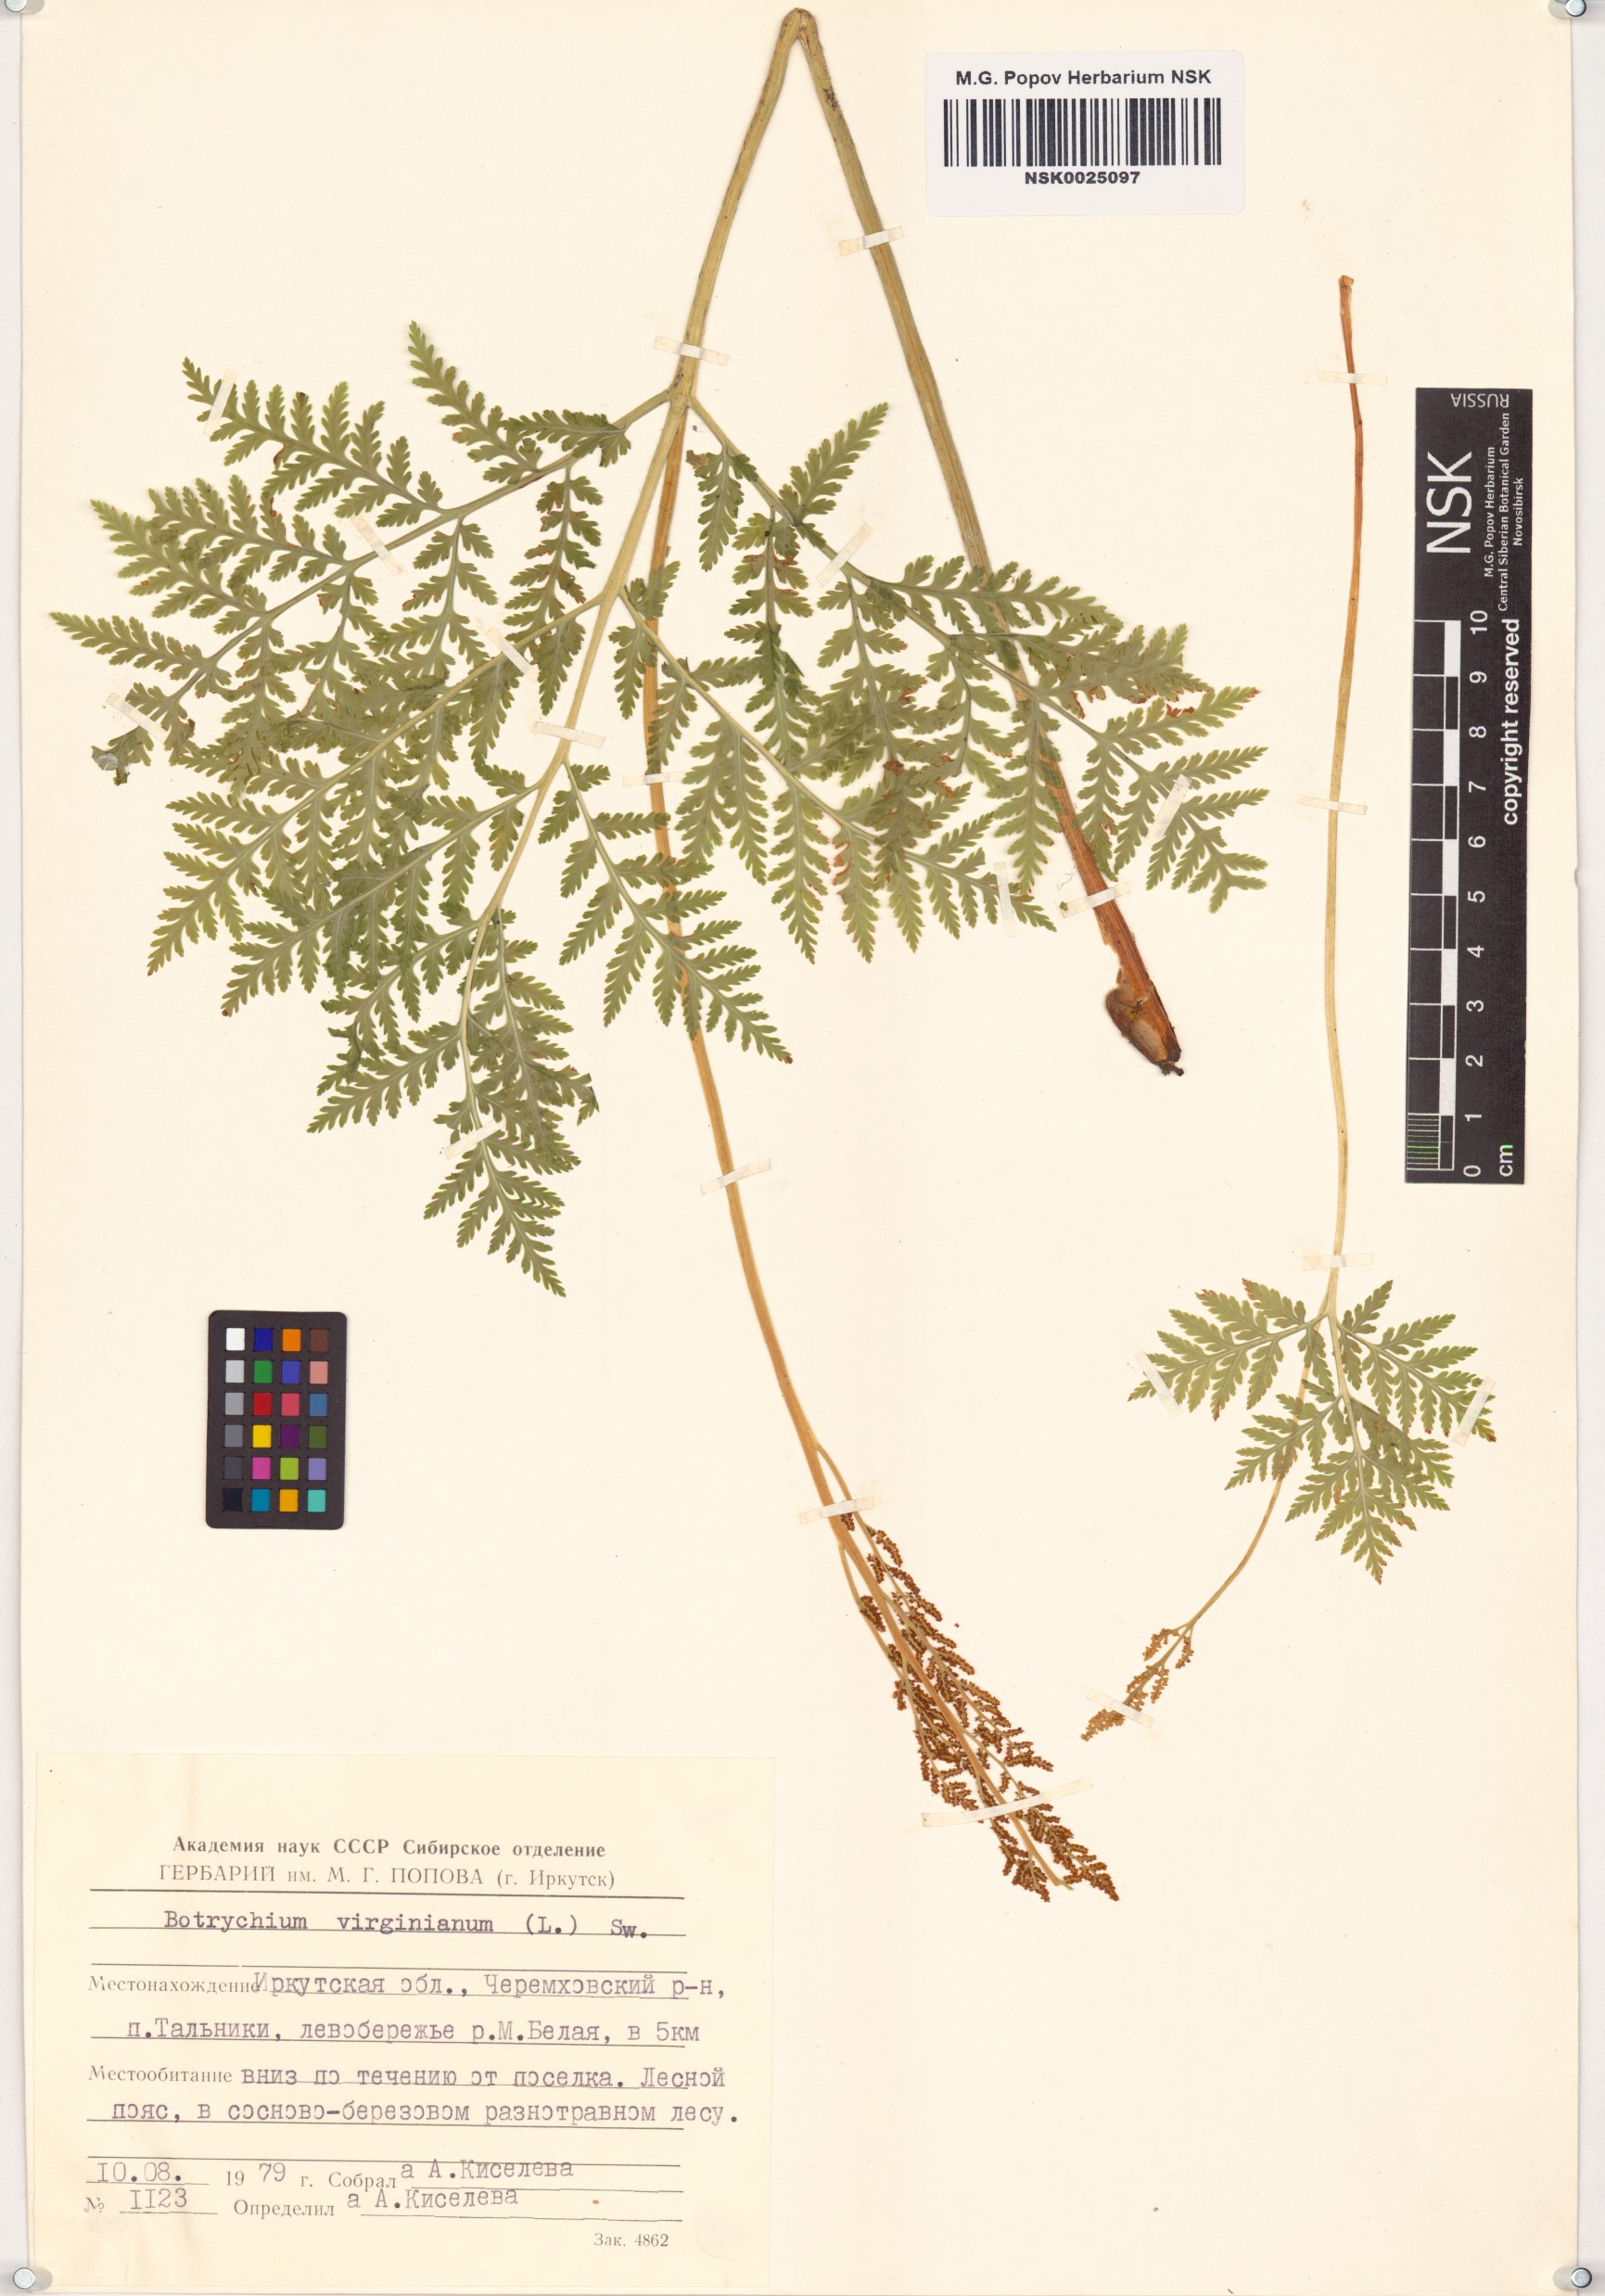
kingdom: Plantae
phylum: Tracheophyta
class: Polypodiopsida
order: Ophioglossales
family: Ophioglossaceae
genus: Botrypus
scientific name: Botrypus virginianus
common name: Common grapefern
